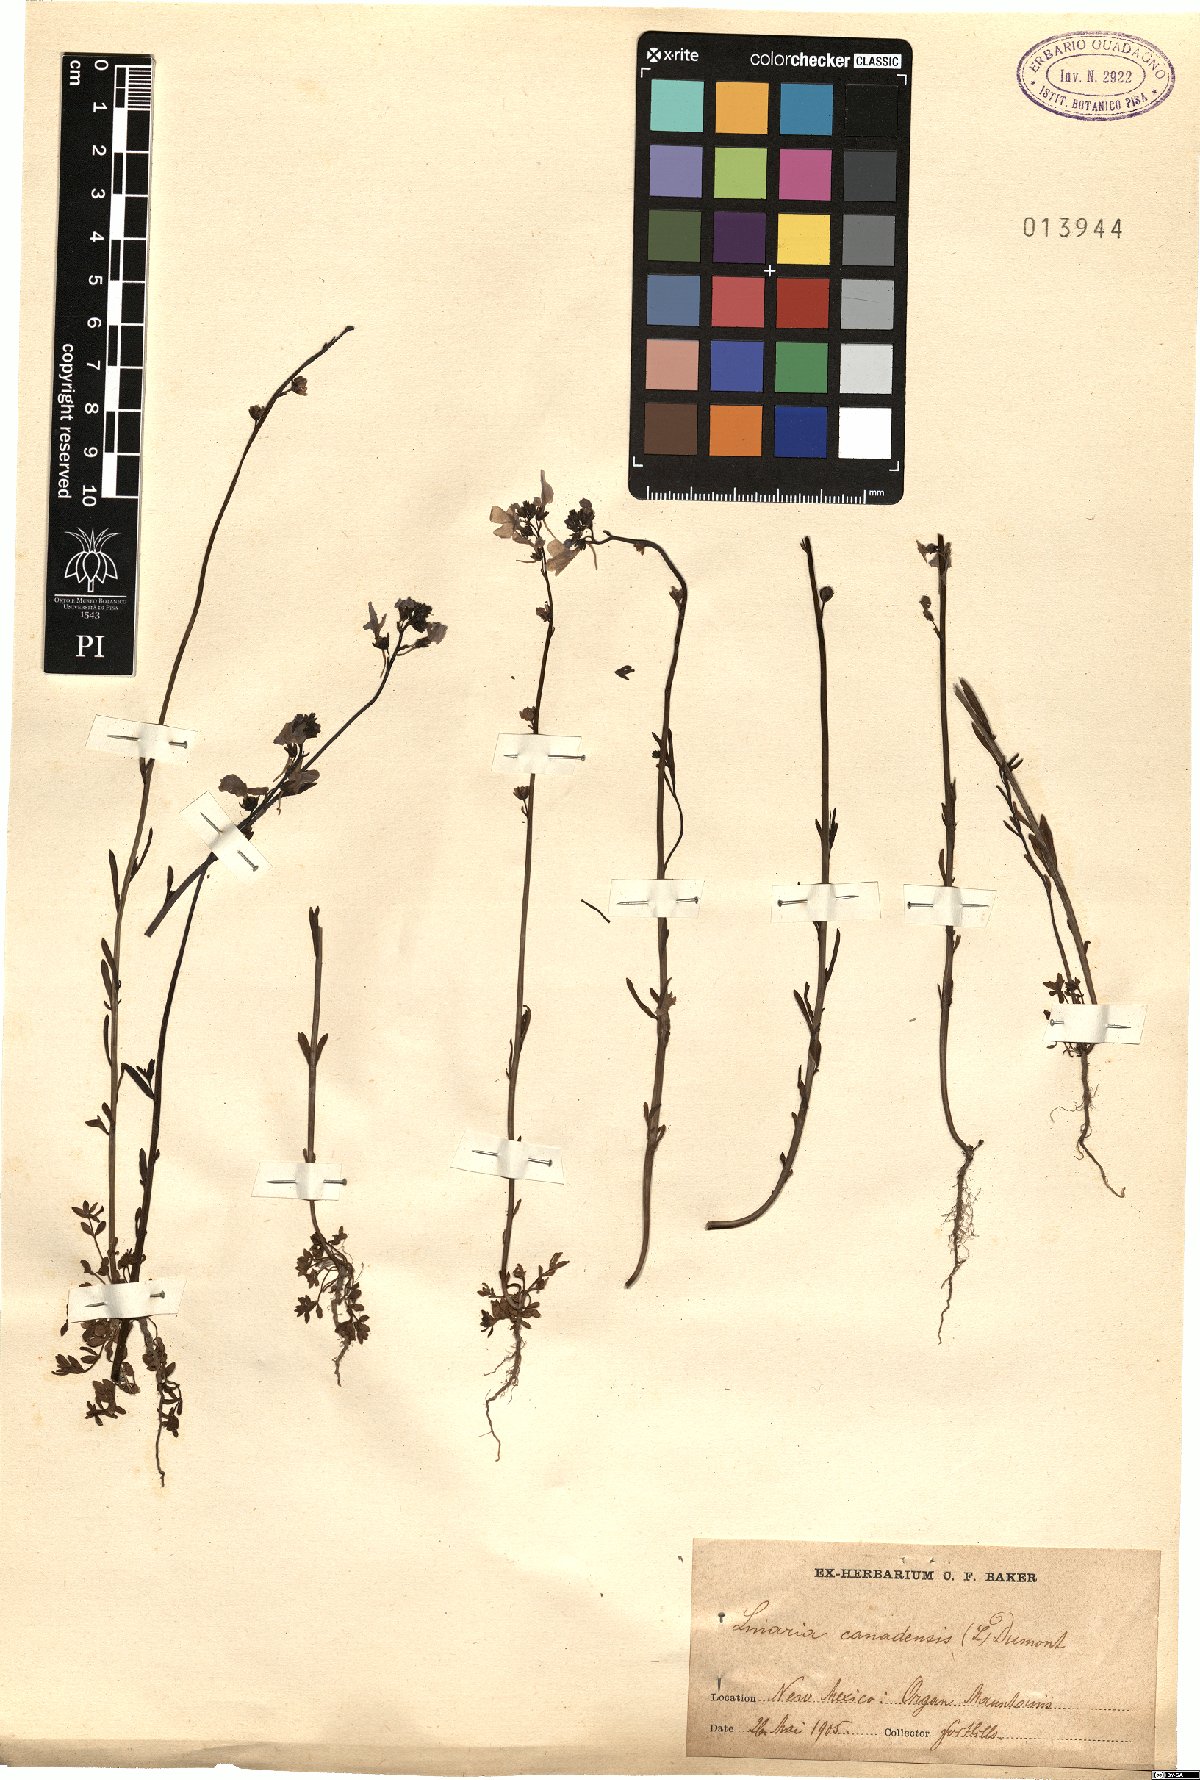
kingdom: Plantae
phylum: Tracheophyta
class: Magnoliopsida
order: Lamiales
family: Plantaginaceae
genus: Nuttallanthus
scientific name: Nuttallanthus canadensis
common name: Blue toadflax
